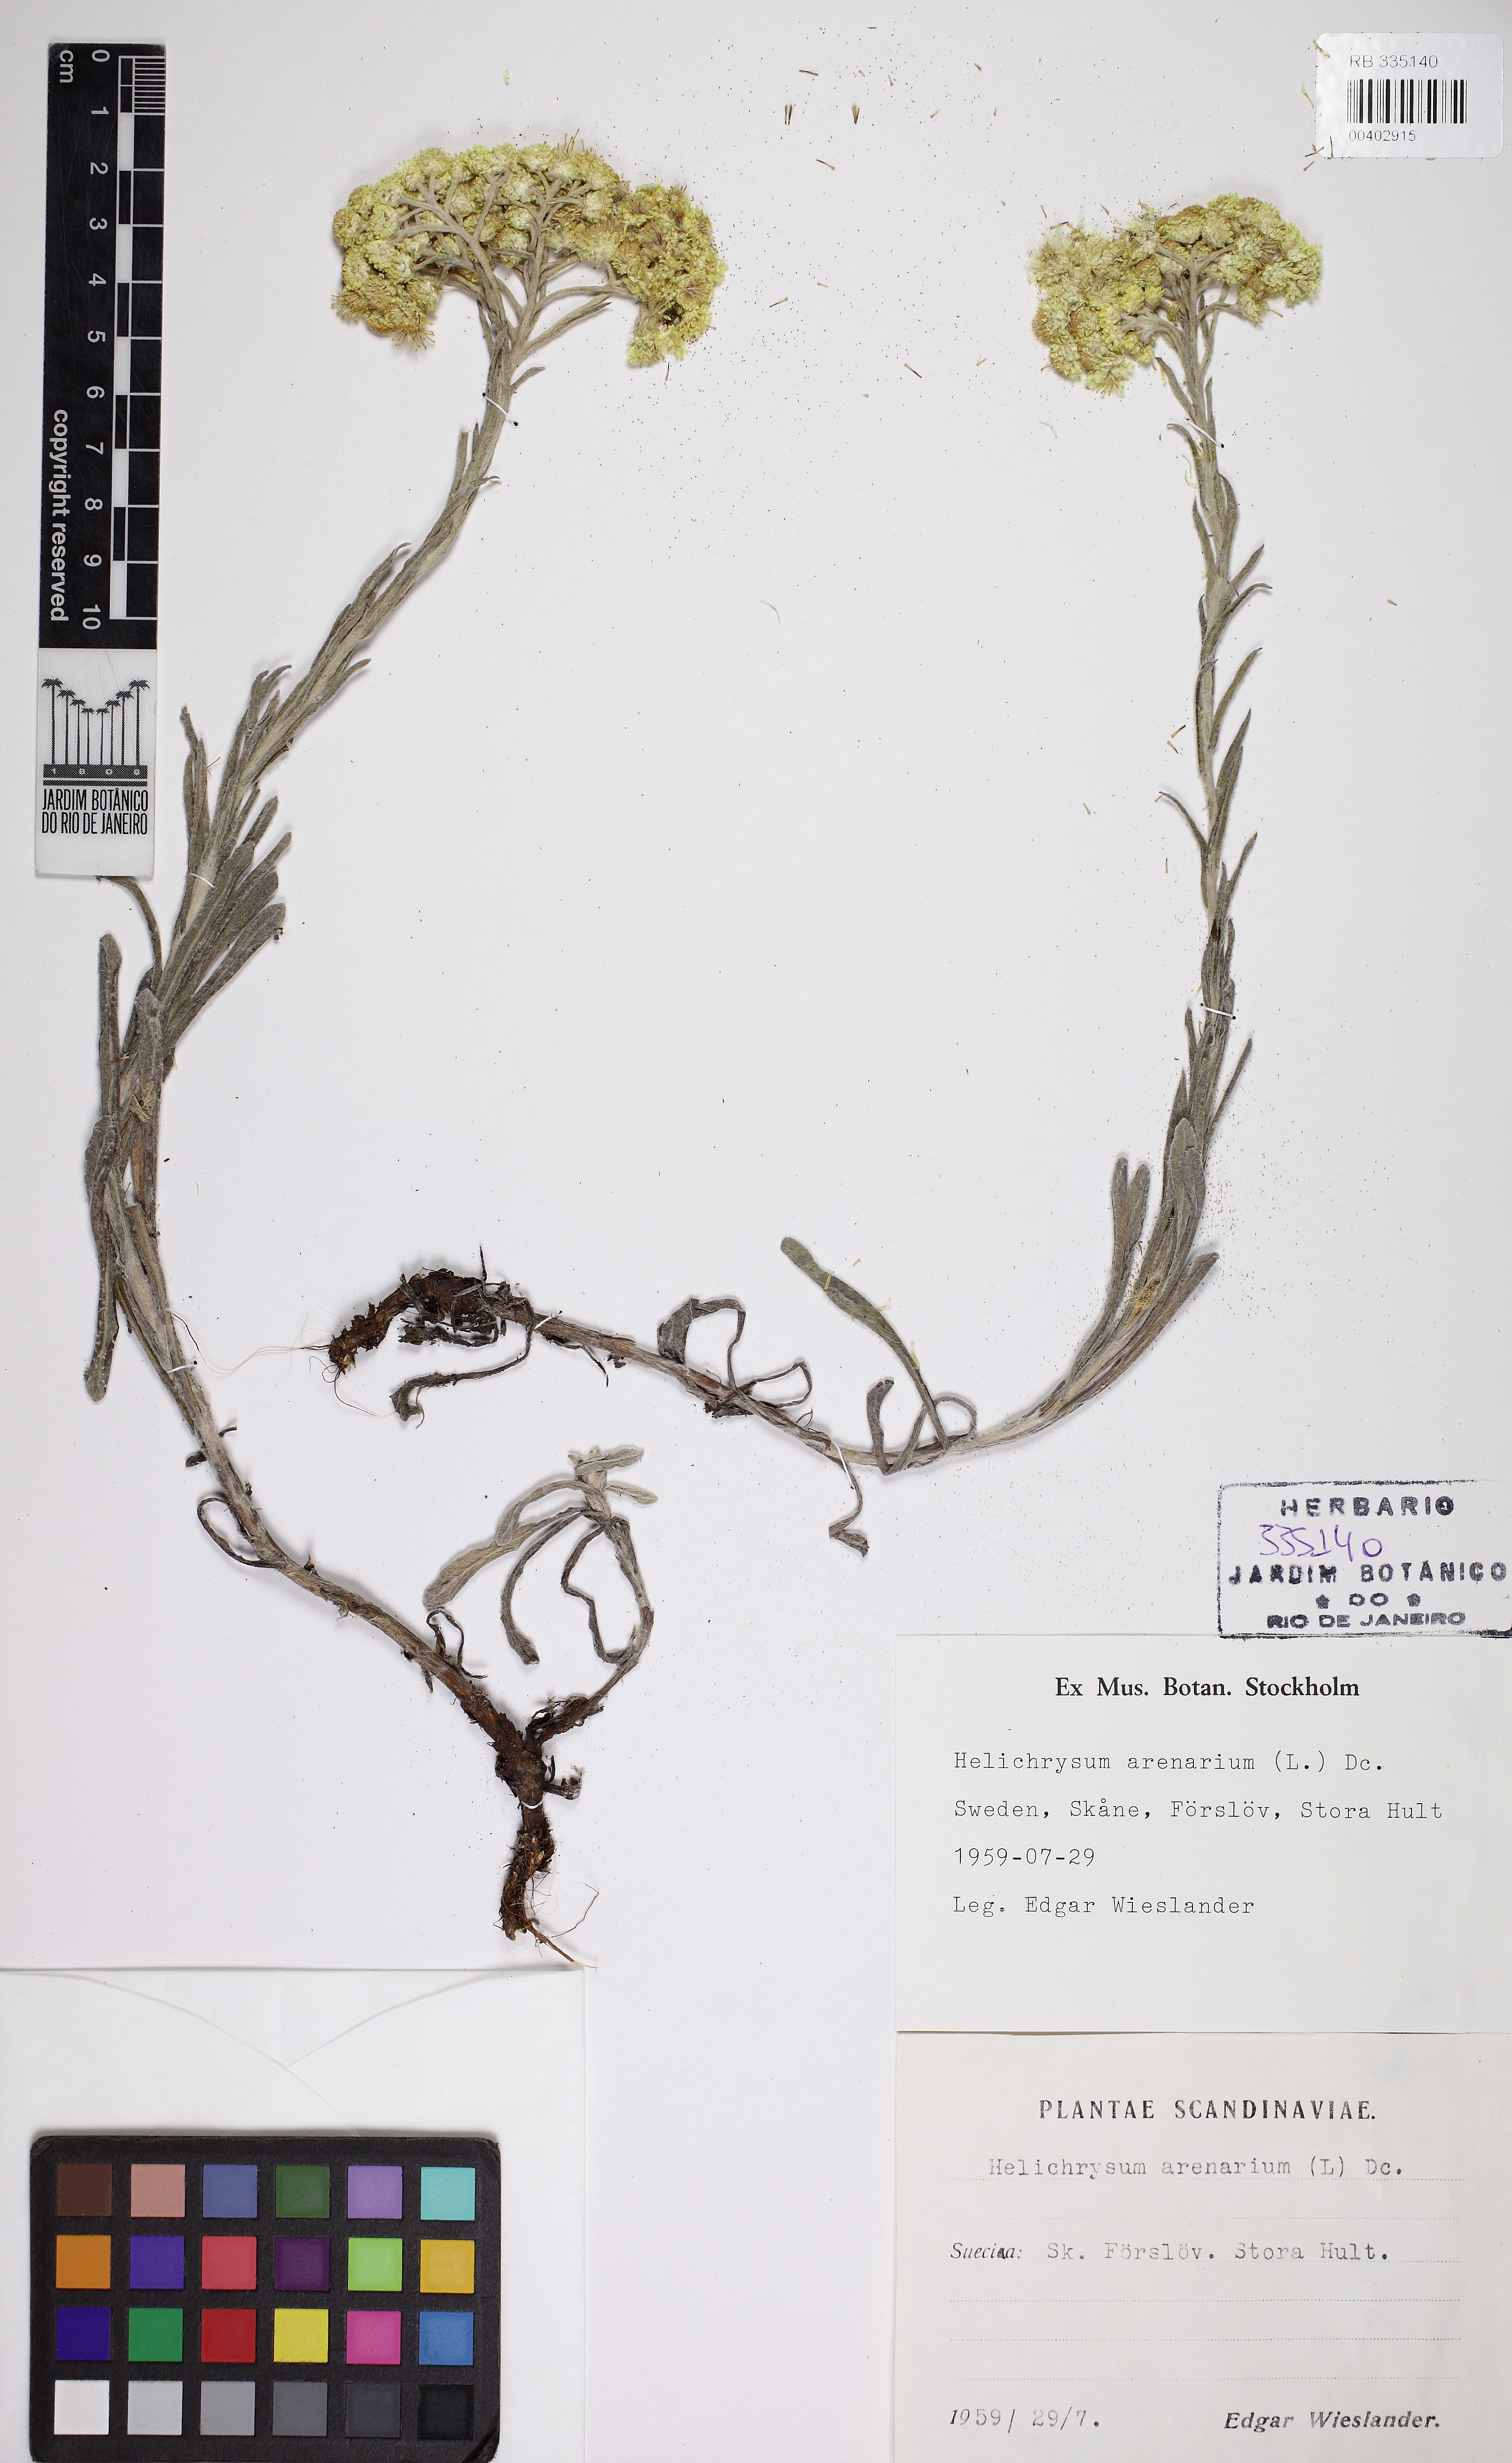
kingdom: Plantae
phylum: Tracheophyta
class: Magnoliopsida
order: Asterales
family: Asteraceae
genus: Helichrysum
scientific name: Helichrysum arenarium
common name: Strawflower
